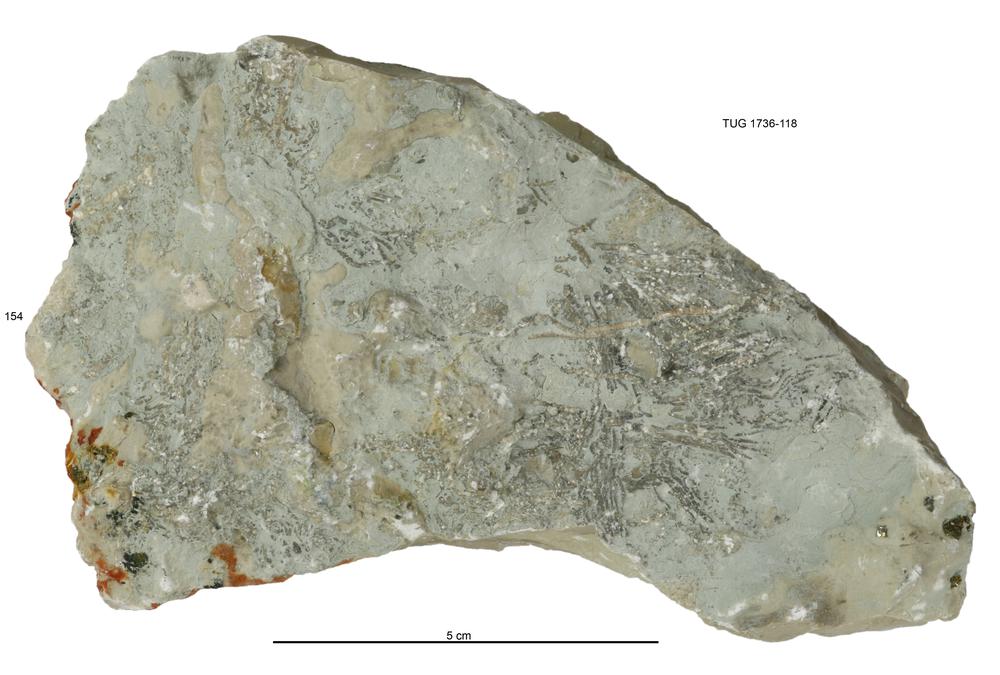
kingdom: Animalia
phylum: Echinodermata
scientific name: Echinodermata
